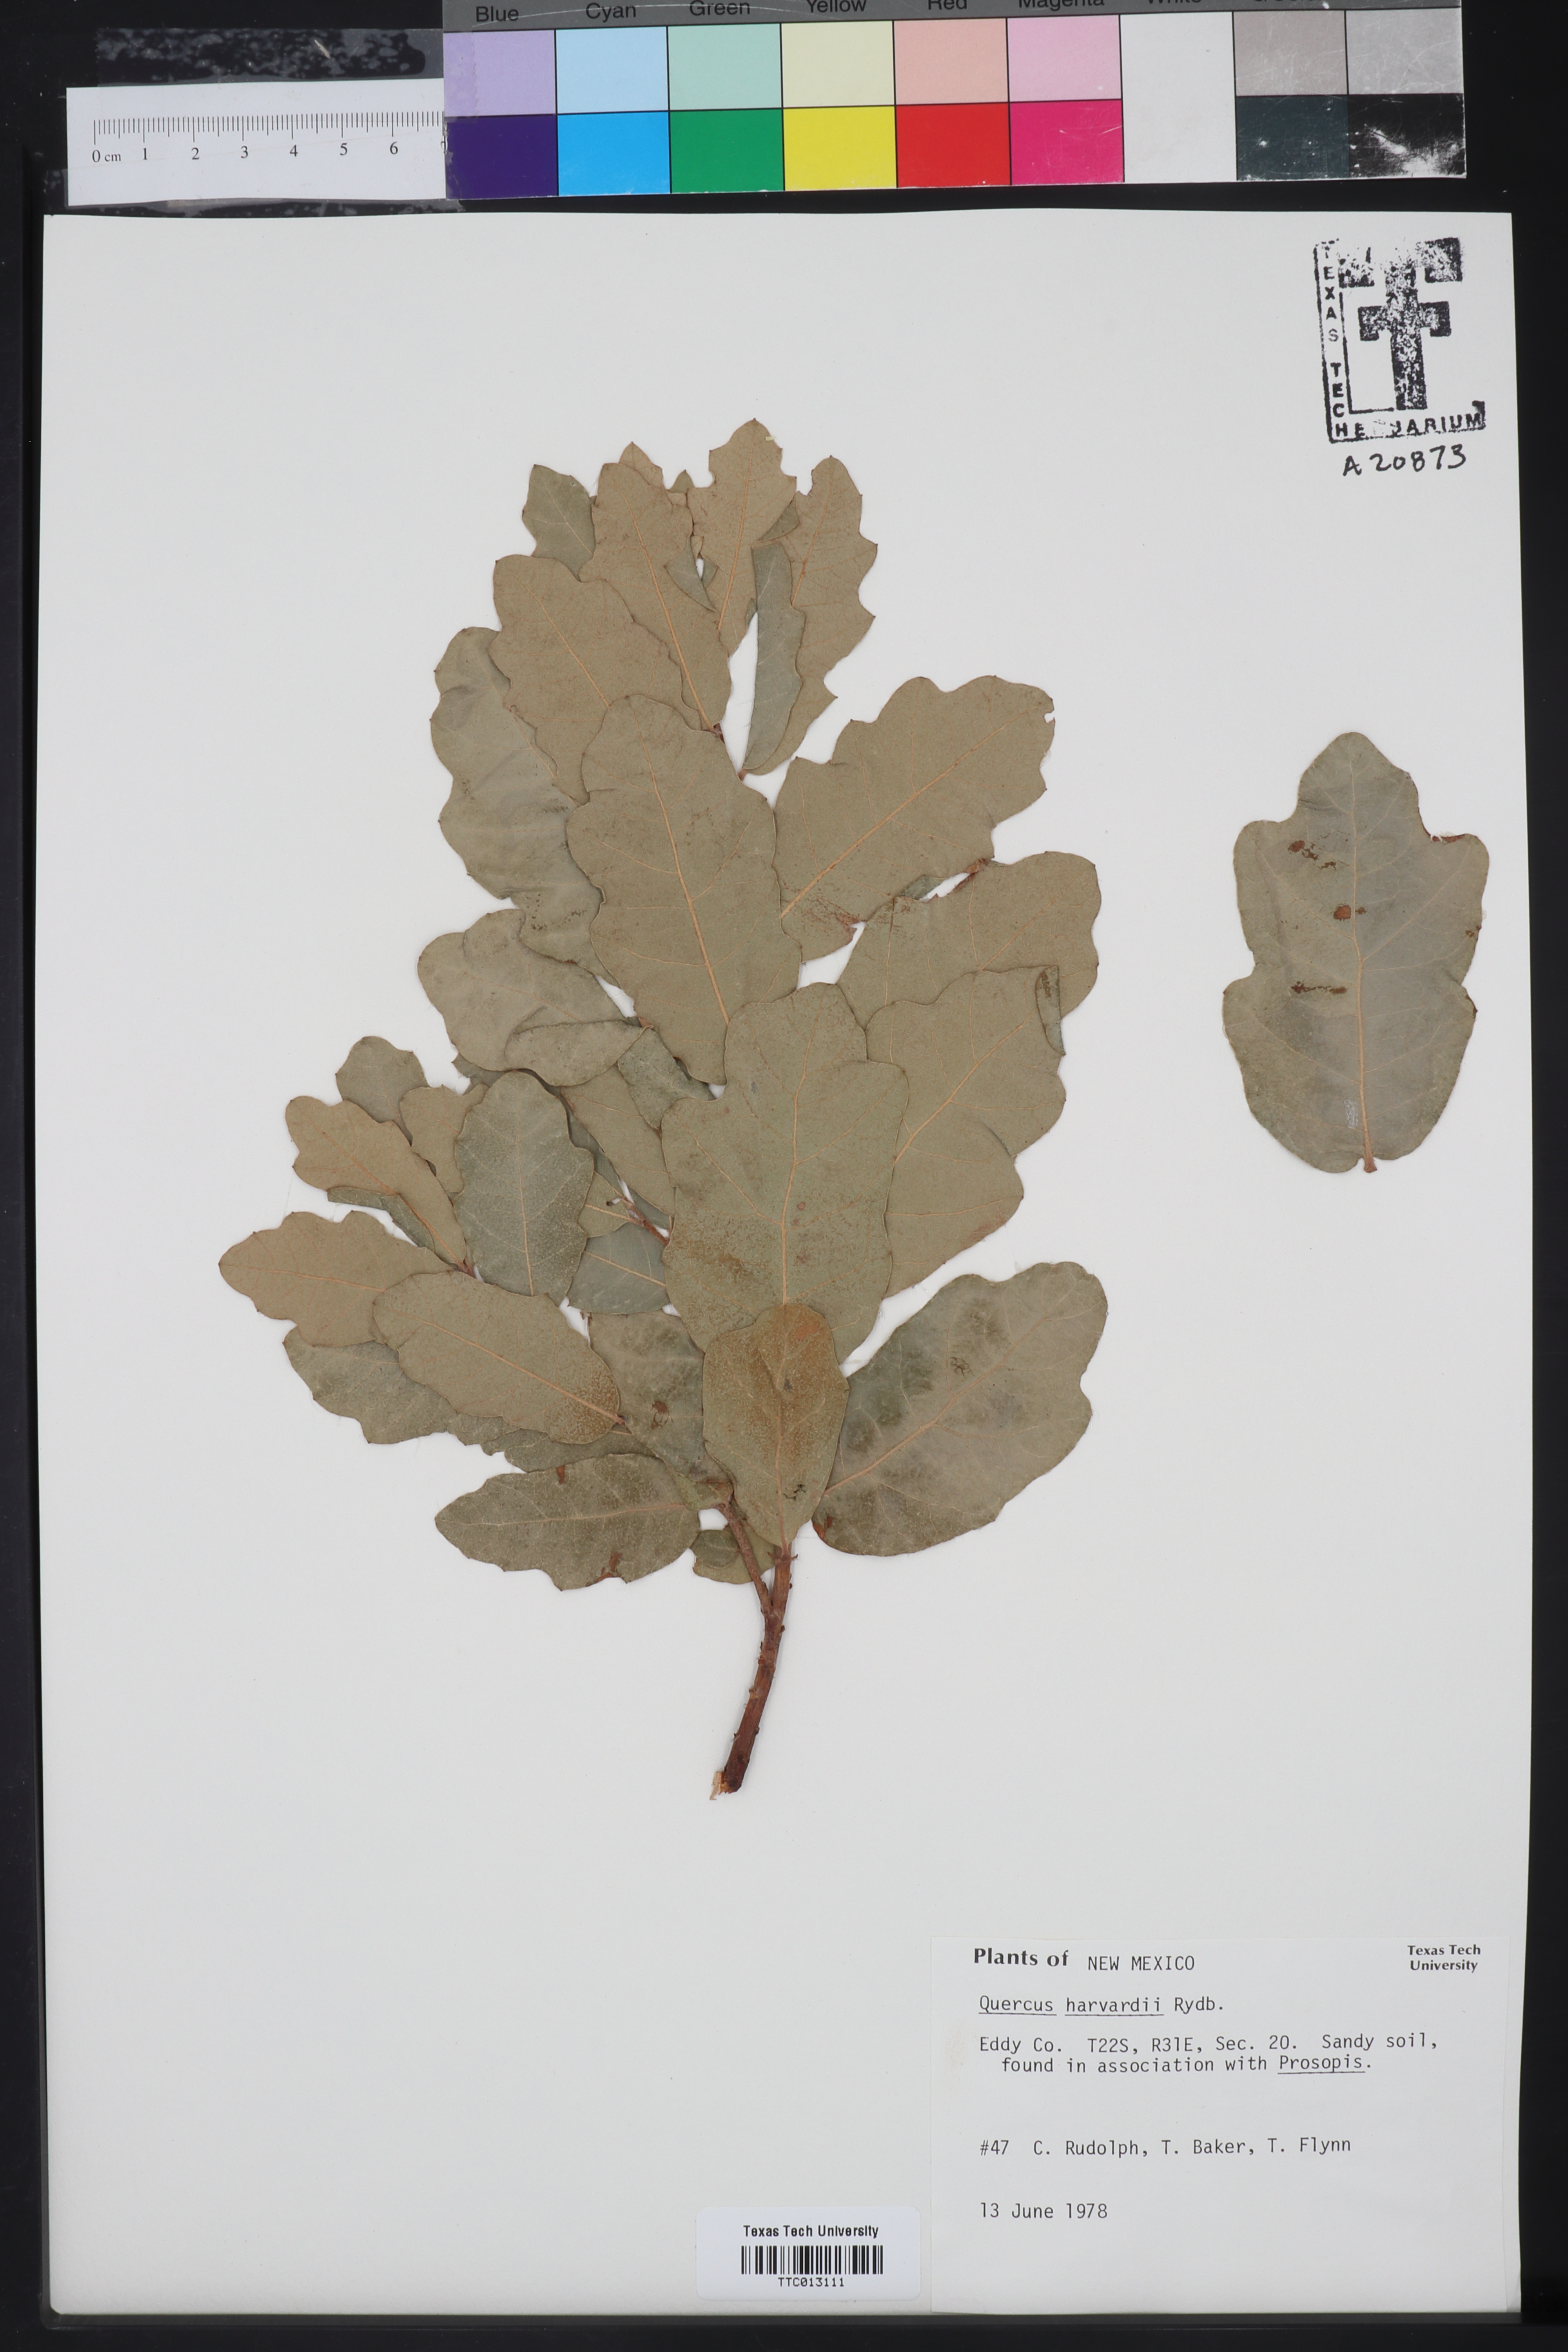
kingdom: Plantae
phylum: Tracheophyta
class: Magnoliopsida
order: Fagales
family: Fagaceae
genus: Quercus
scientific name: Quercus havardii
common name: Shinnery oak
